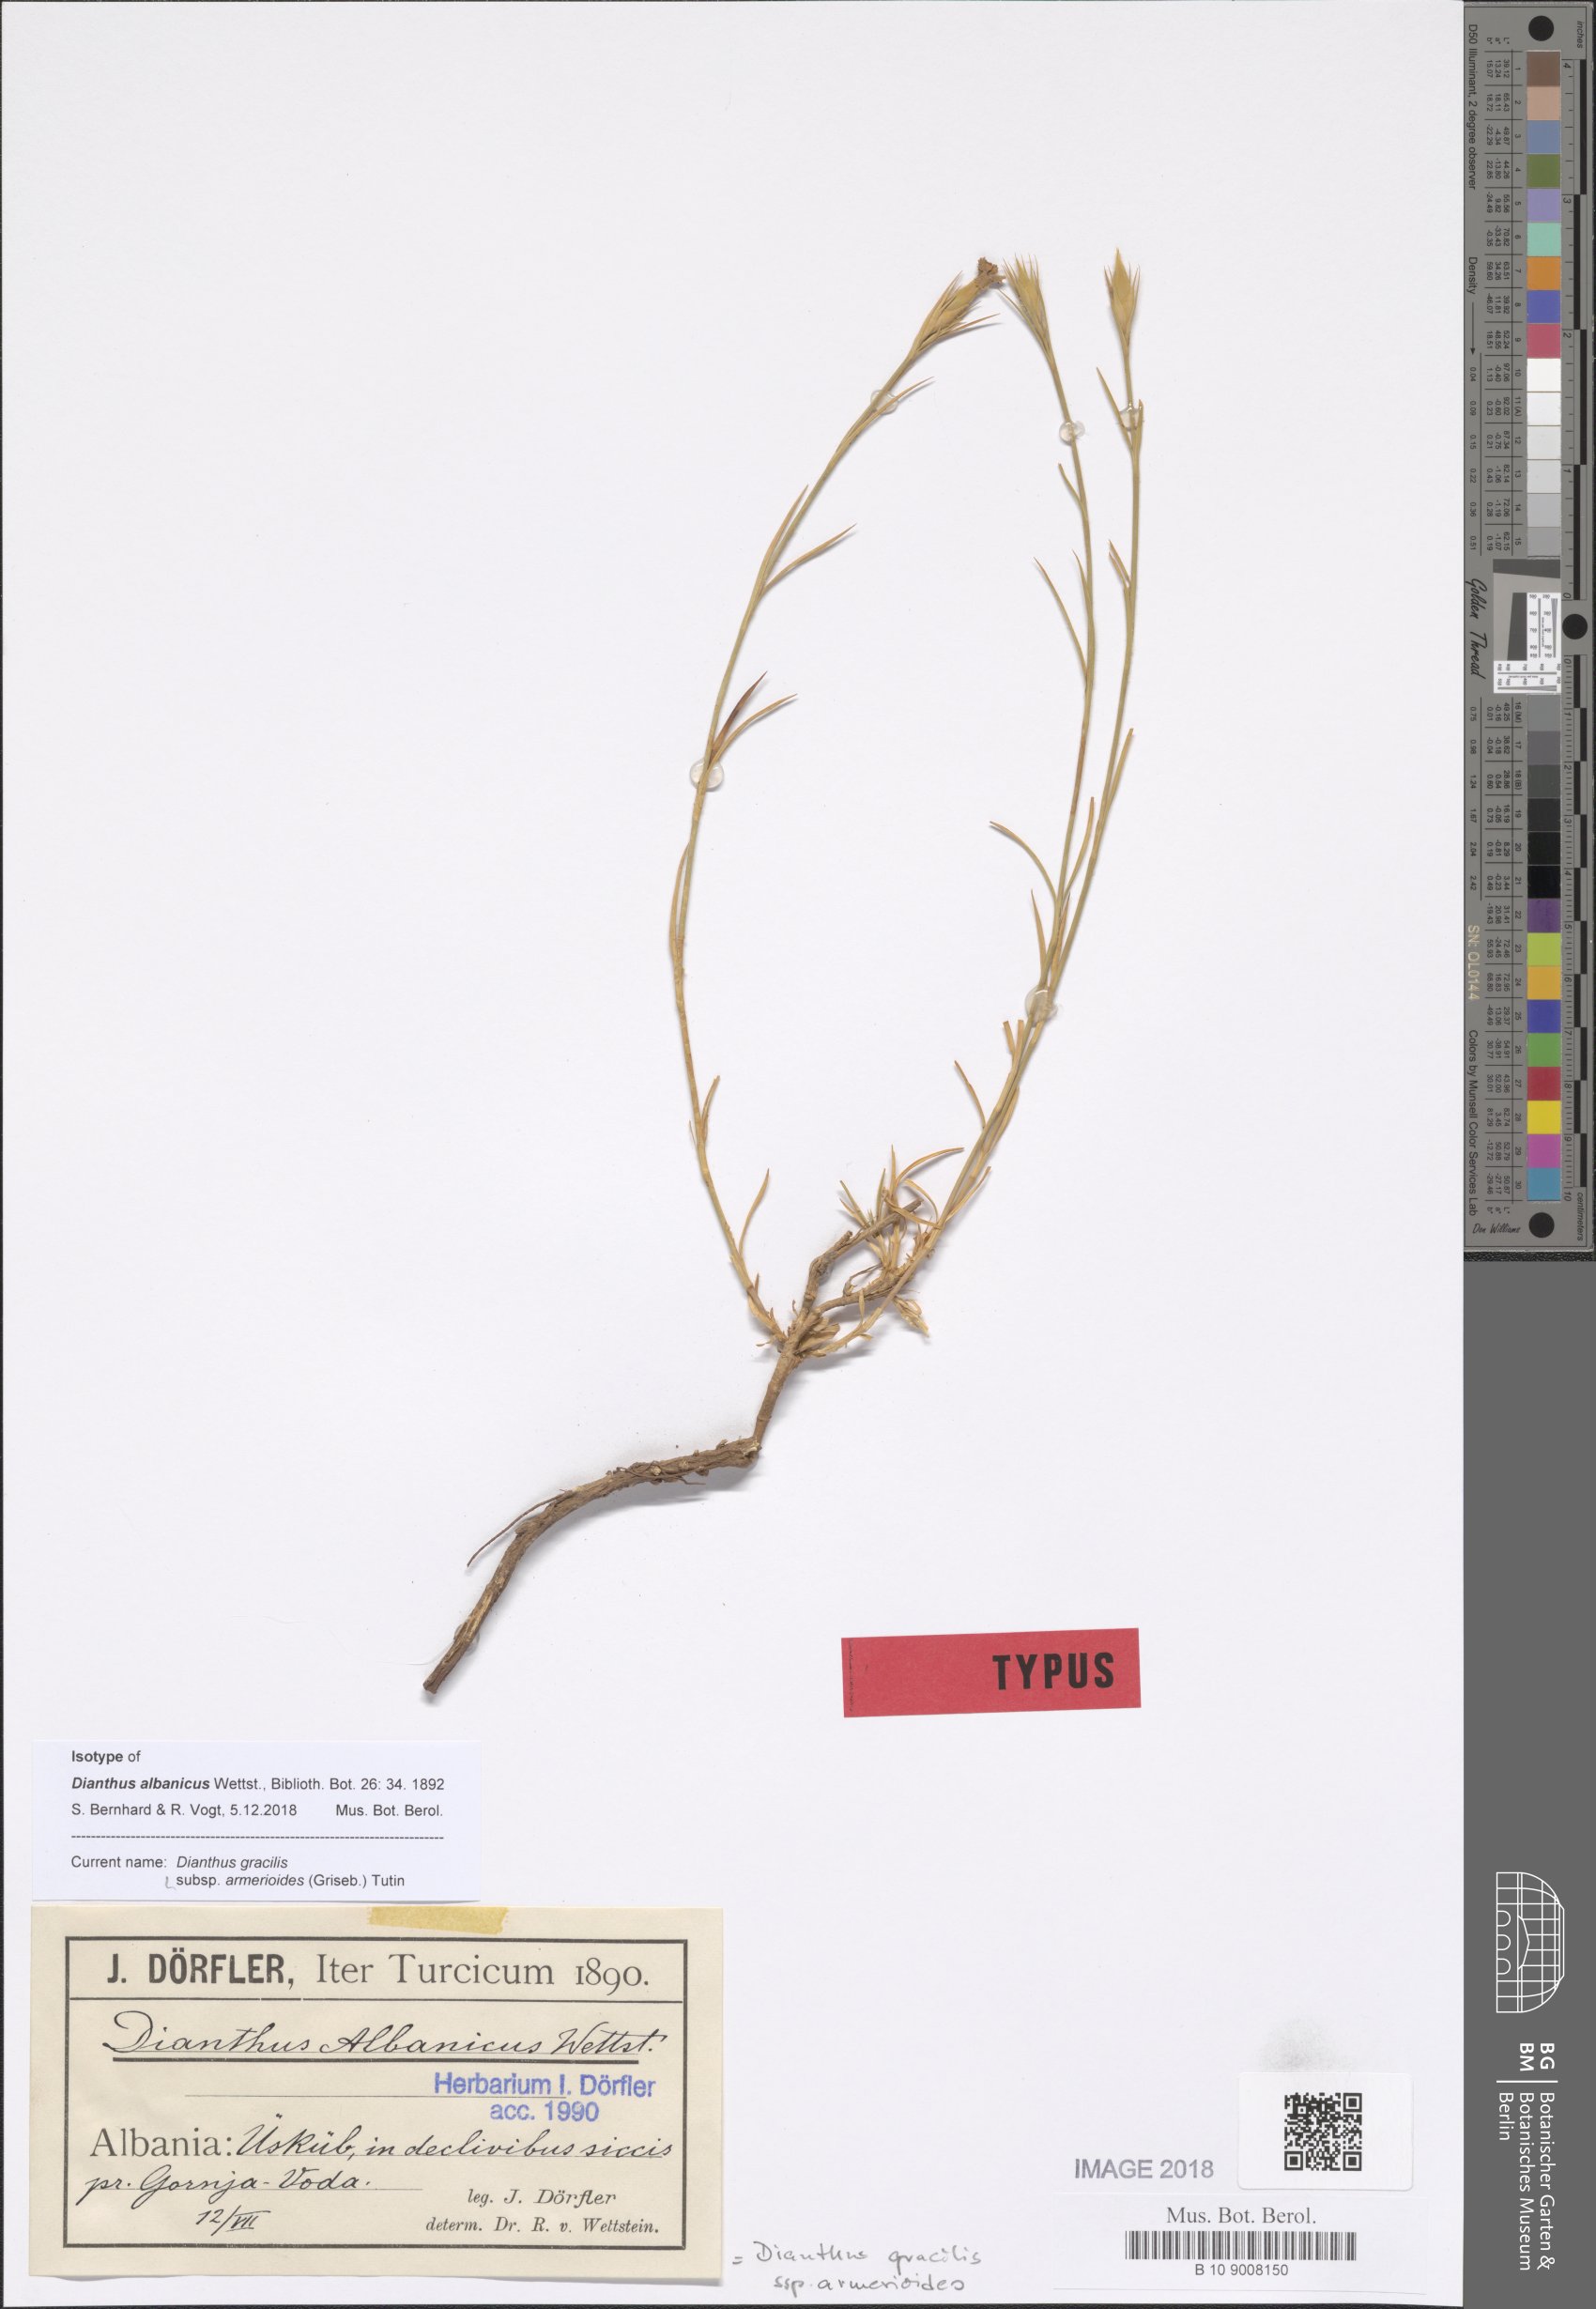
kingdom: Plantae
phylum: Tracheophyta
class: Magnoliopsida
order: Caryophyllales
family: Caryophyllaceae
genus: Dianthus
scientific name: Dianthus gracilis
